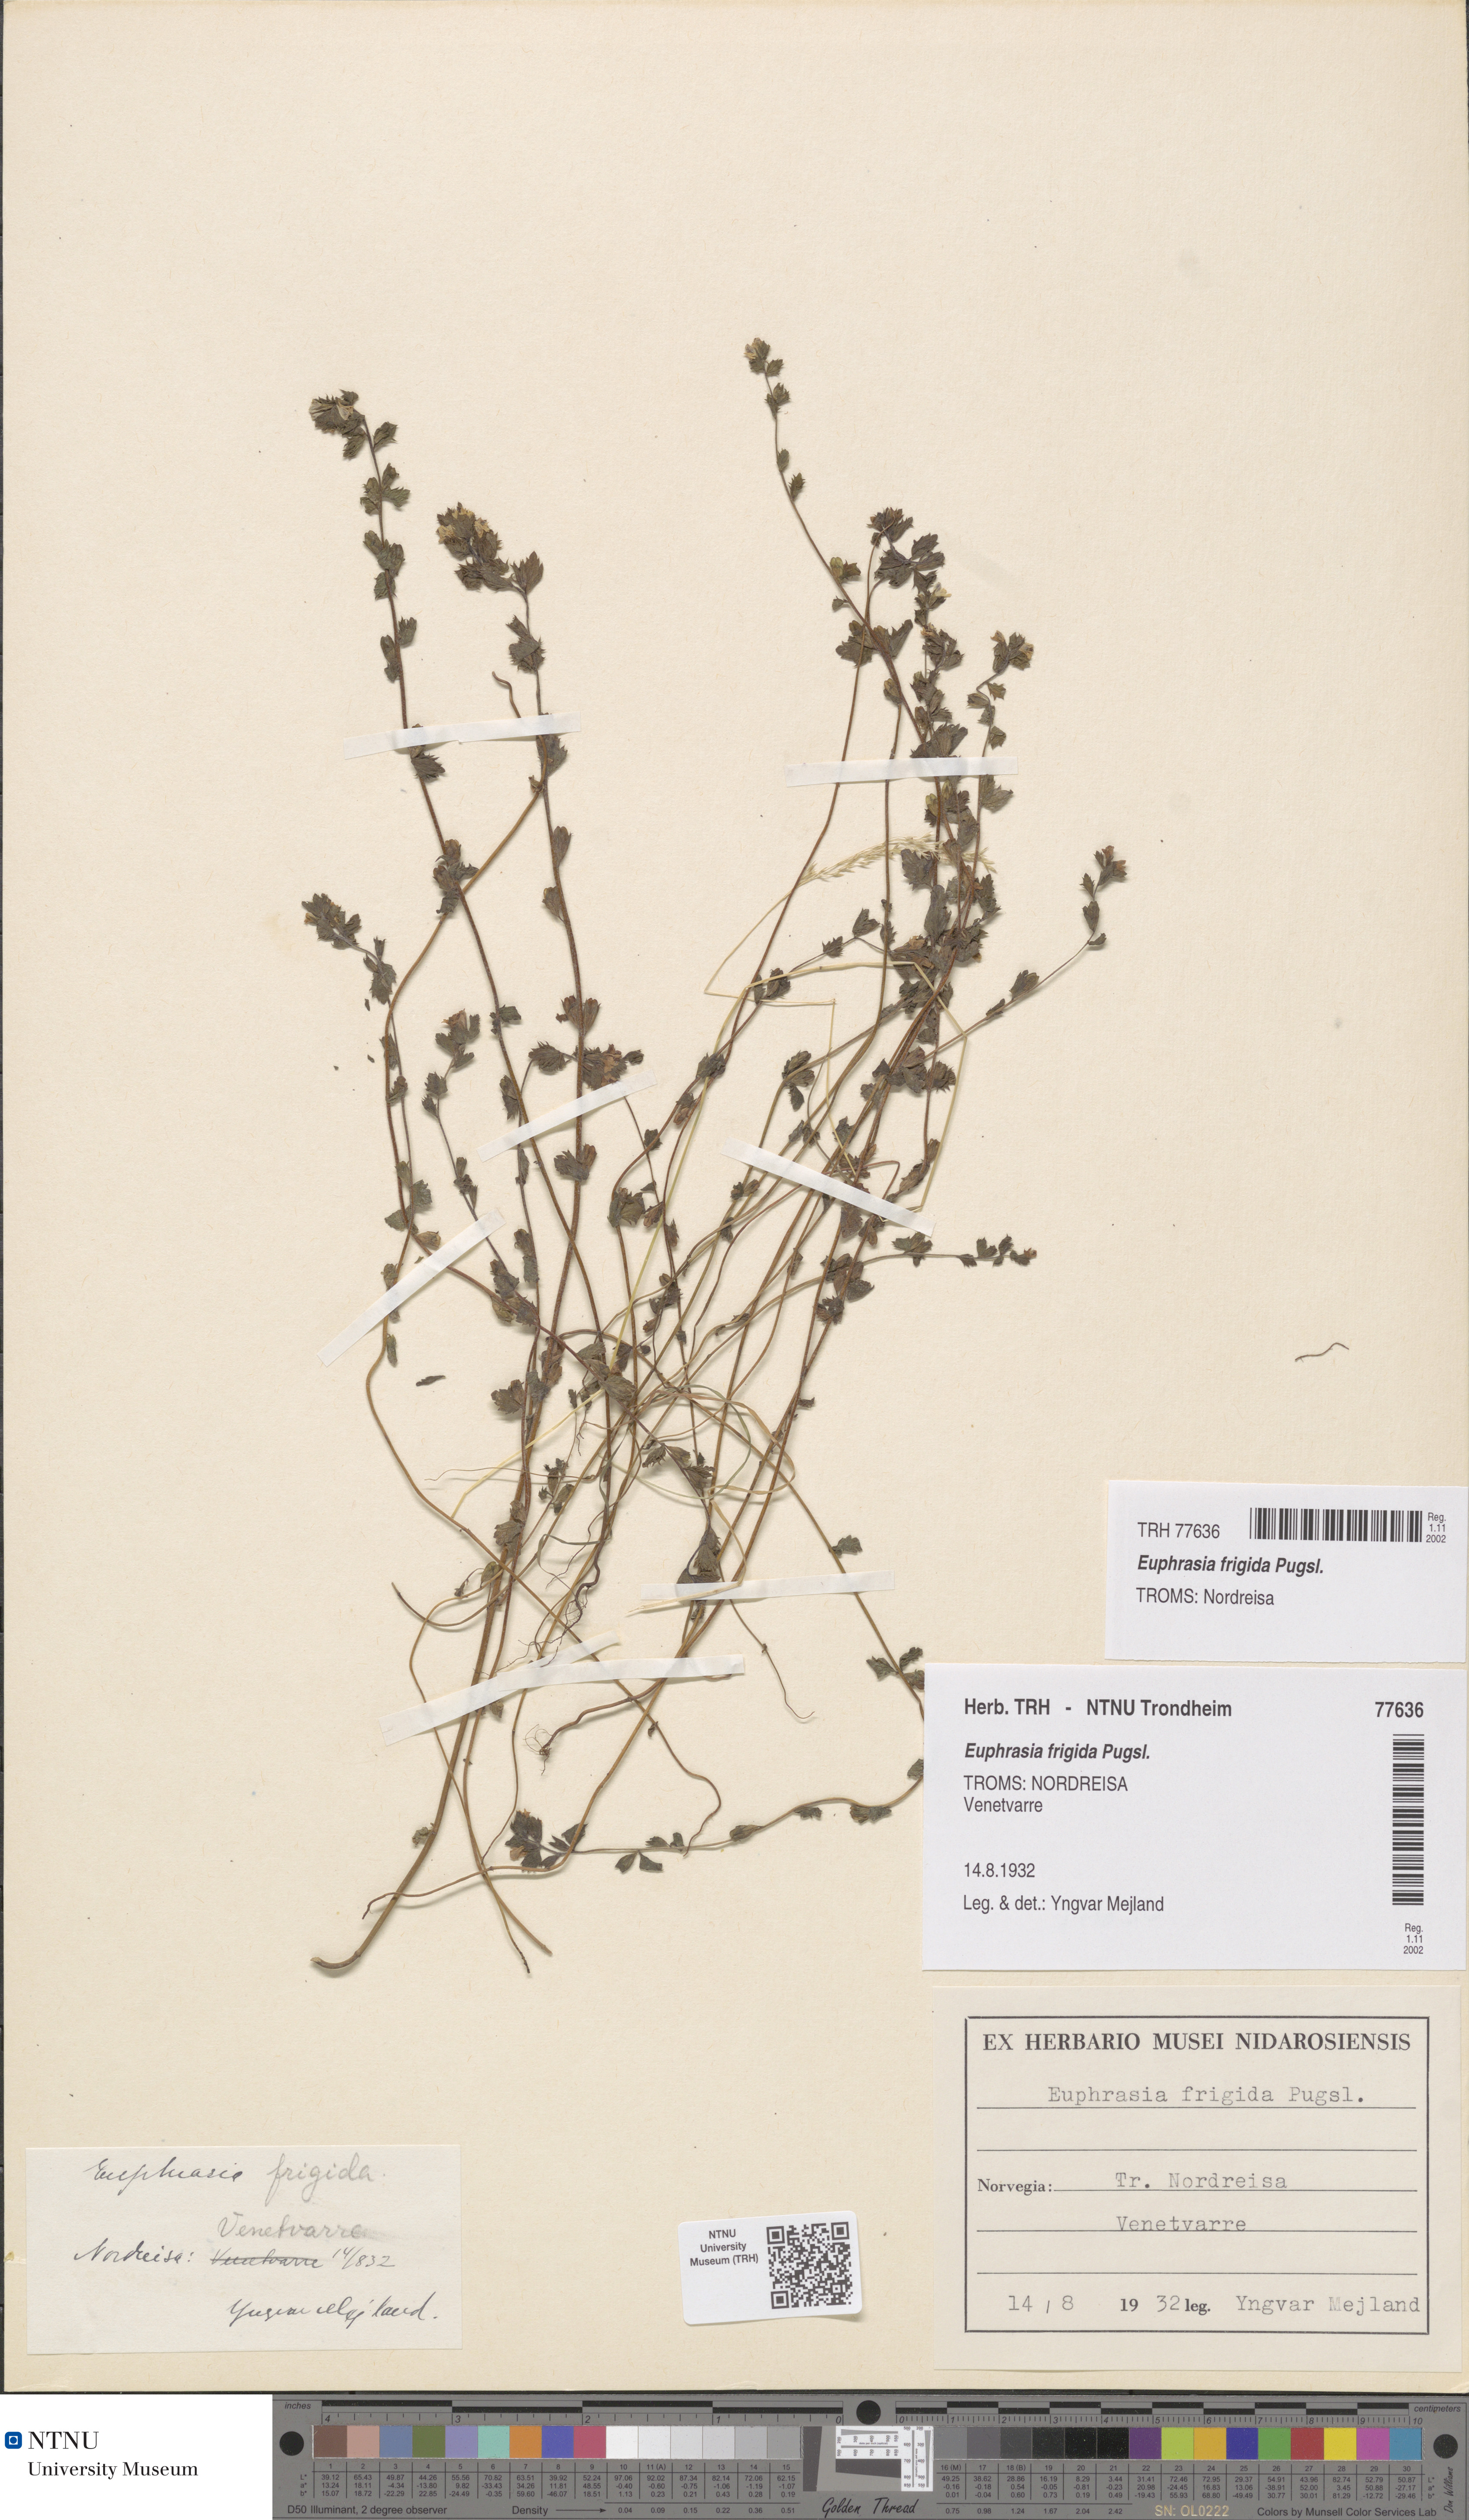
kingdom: Plantae
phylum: Tracheophyta
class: Magnoliopsida
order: Lamiales
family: Orobanchaceae
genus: Euphrasia
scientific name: Euphrasia wettsteinii
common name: Wettstein's eyebright
